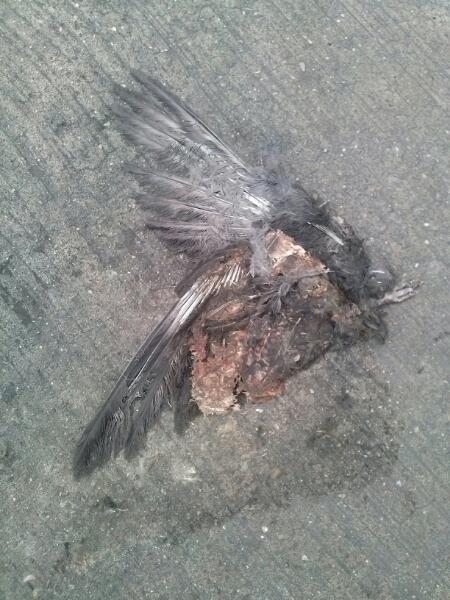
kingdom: Animalia
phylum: Chordata
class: Aves
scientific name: Aves
